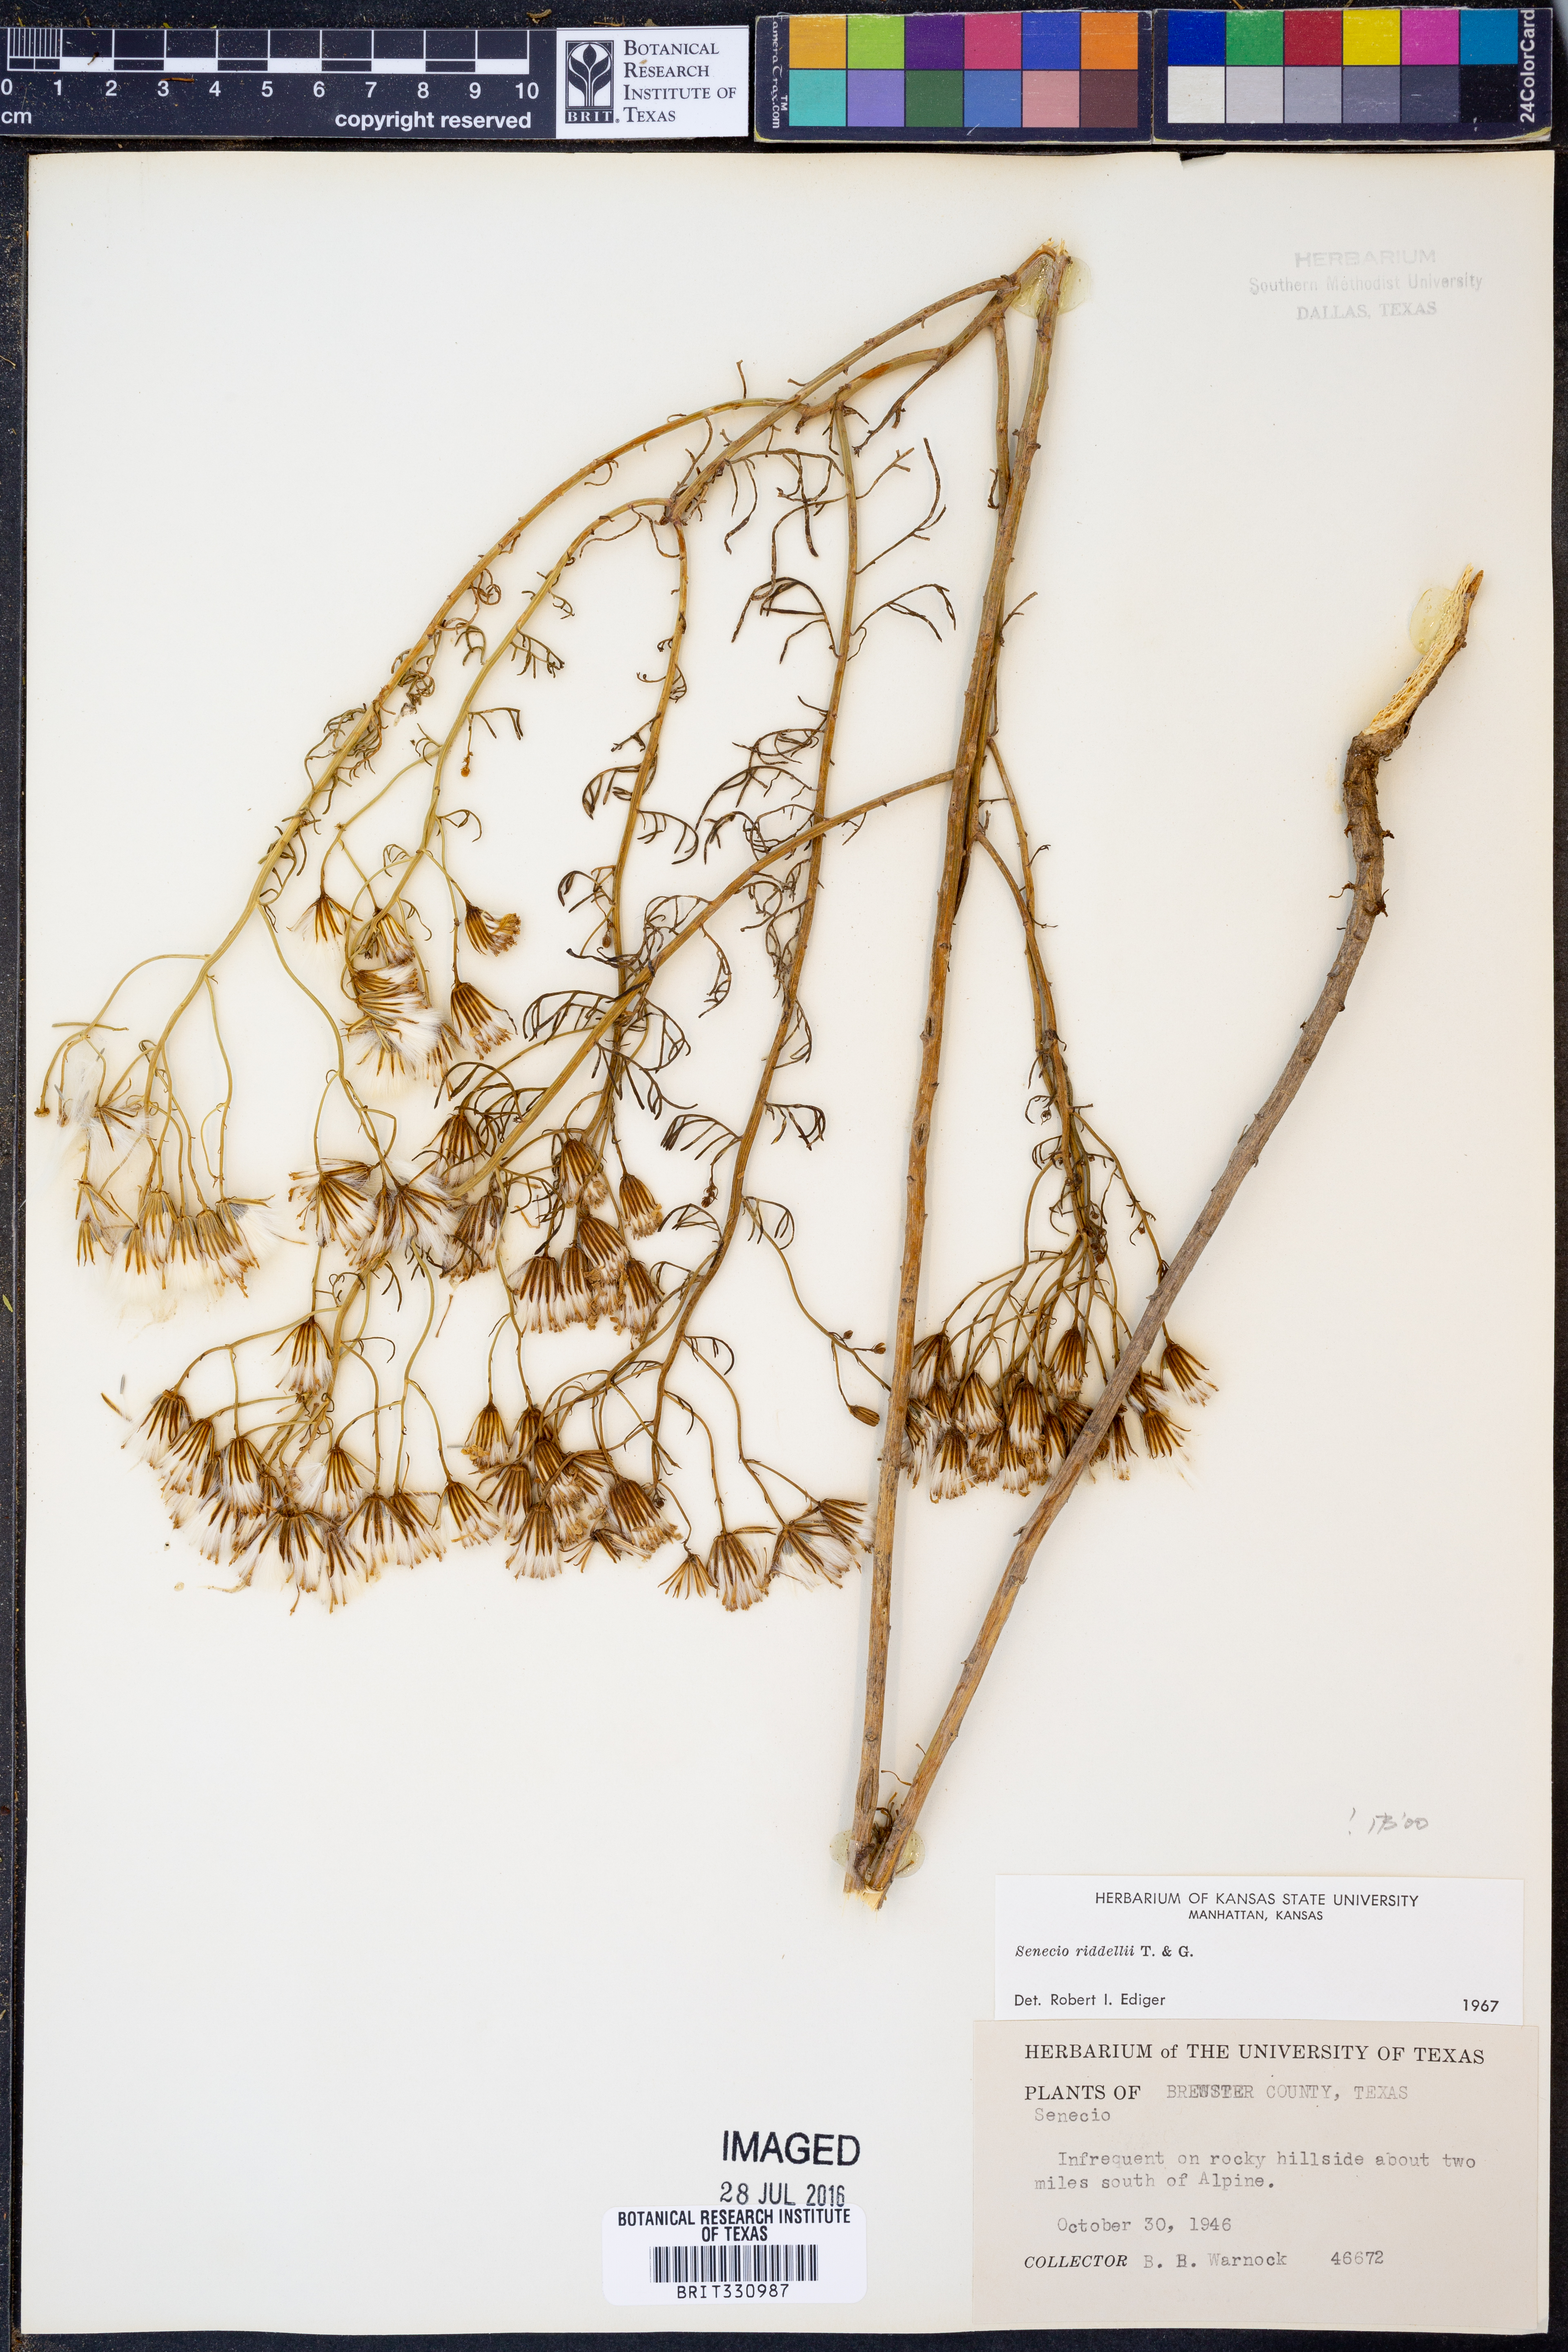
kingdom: Plantae
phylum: Tracheophyta
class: Magnoliopsida
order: Asterales
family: Asteraceae
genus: Senecio
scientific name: Senecio riddellii
